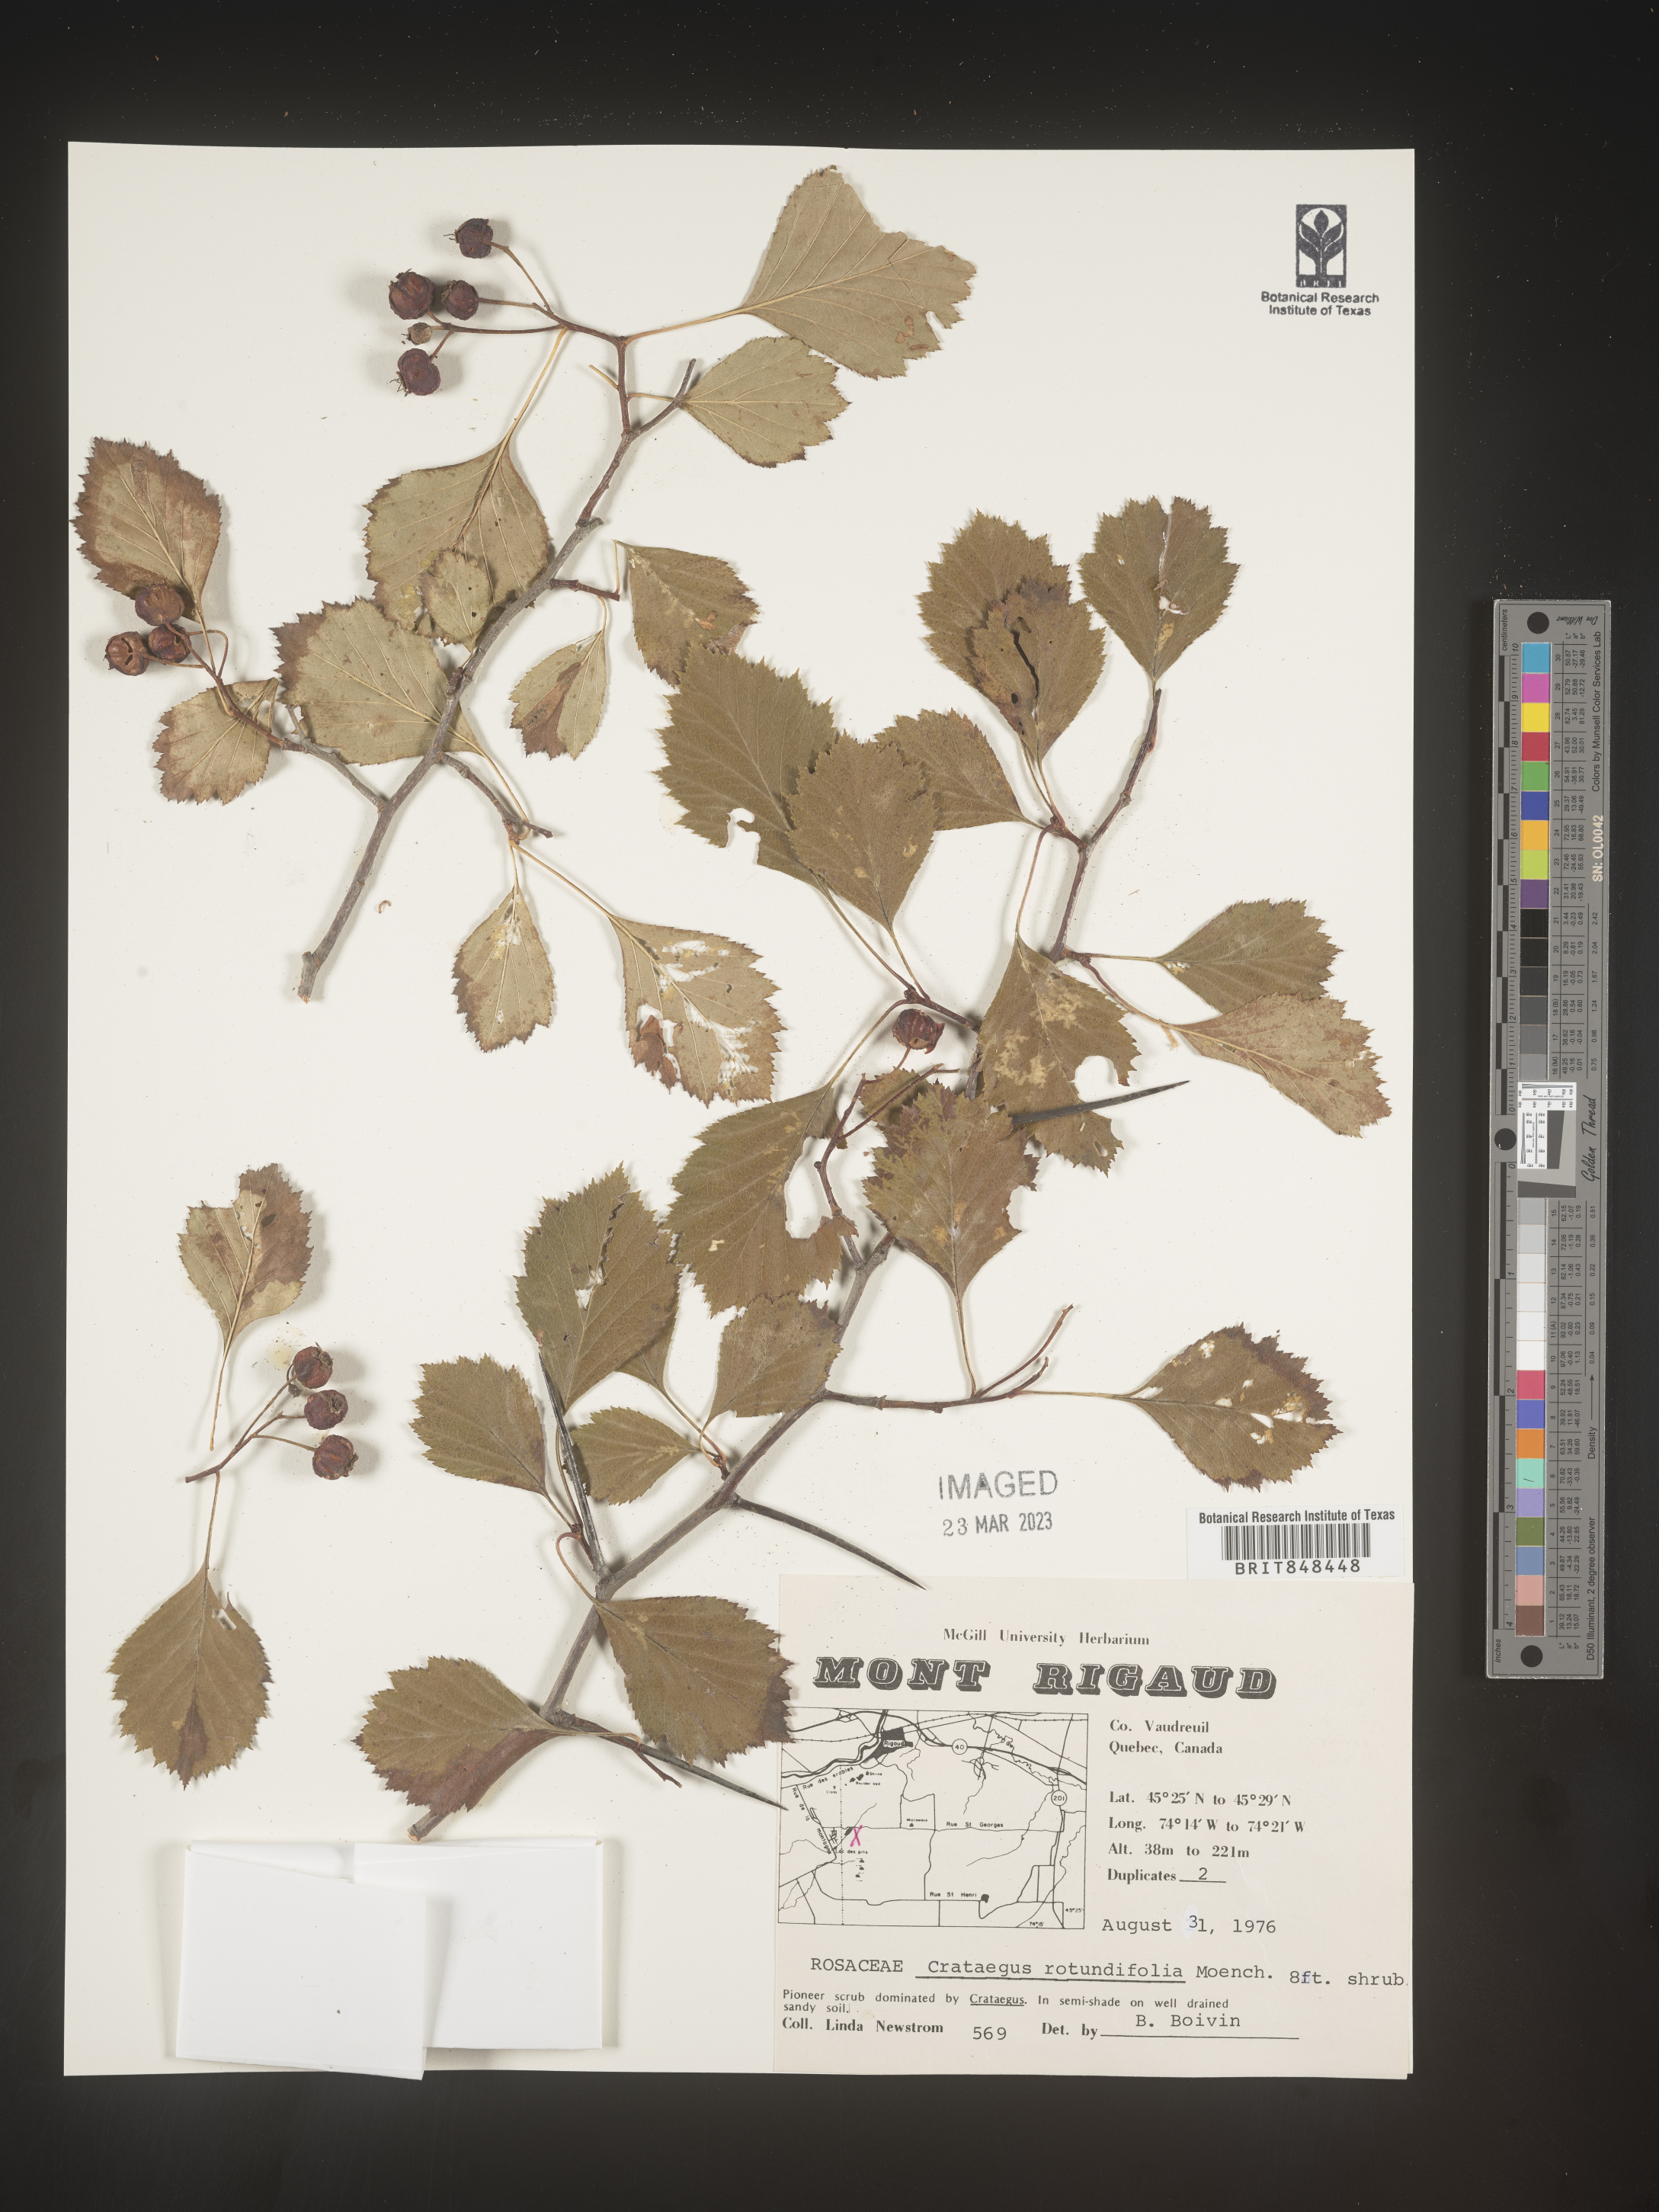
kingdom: Plantae
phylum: Tracheophyta
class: Magnoliopsida
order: Rosales
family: Rosaceae
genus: Crataegus
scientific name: Crataegus chrysocarpa
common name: Fire-berry hawthorn
